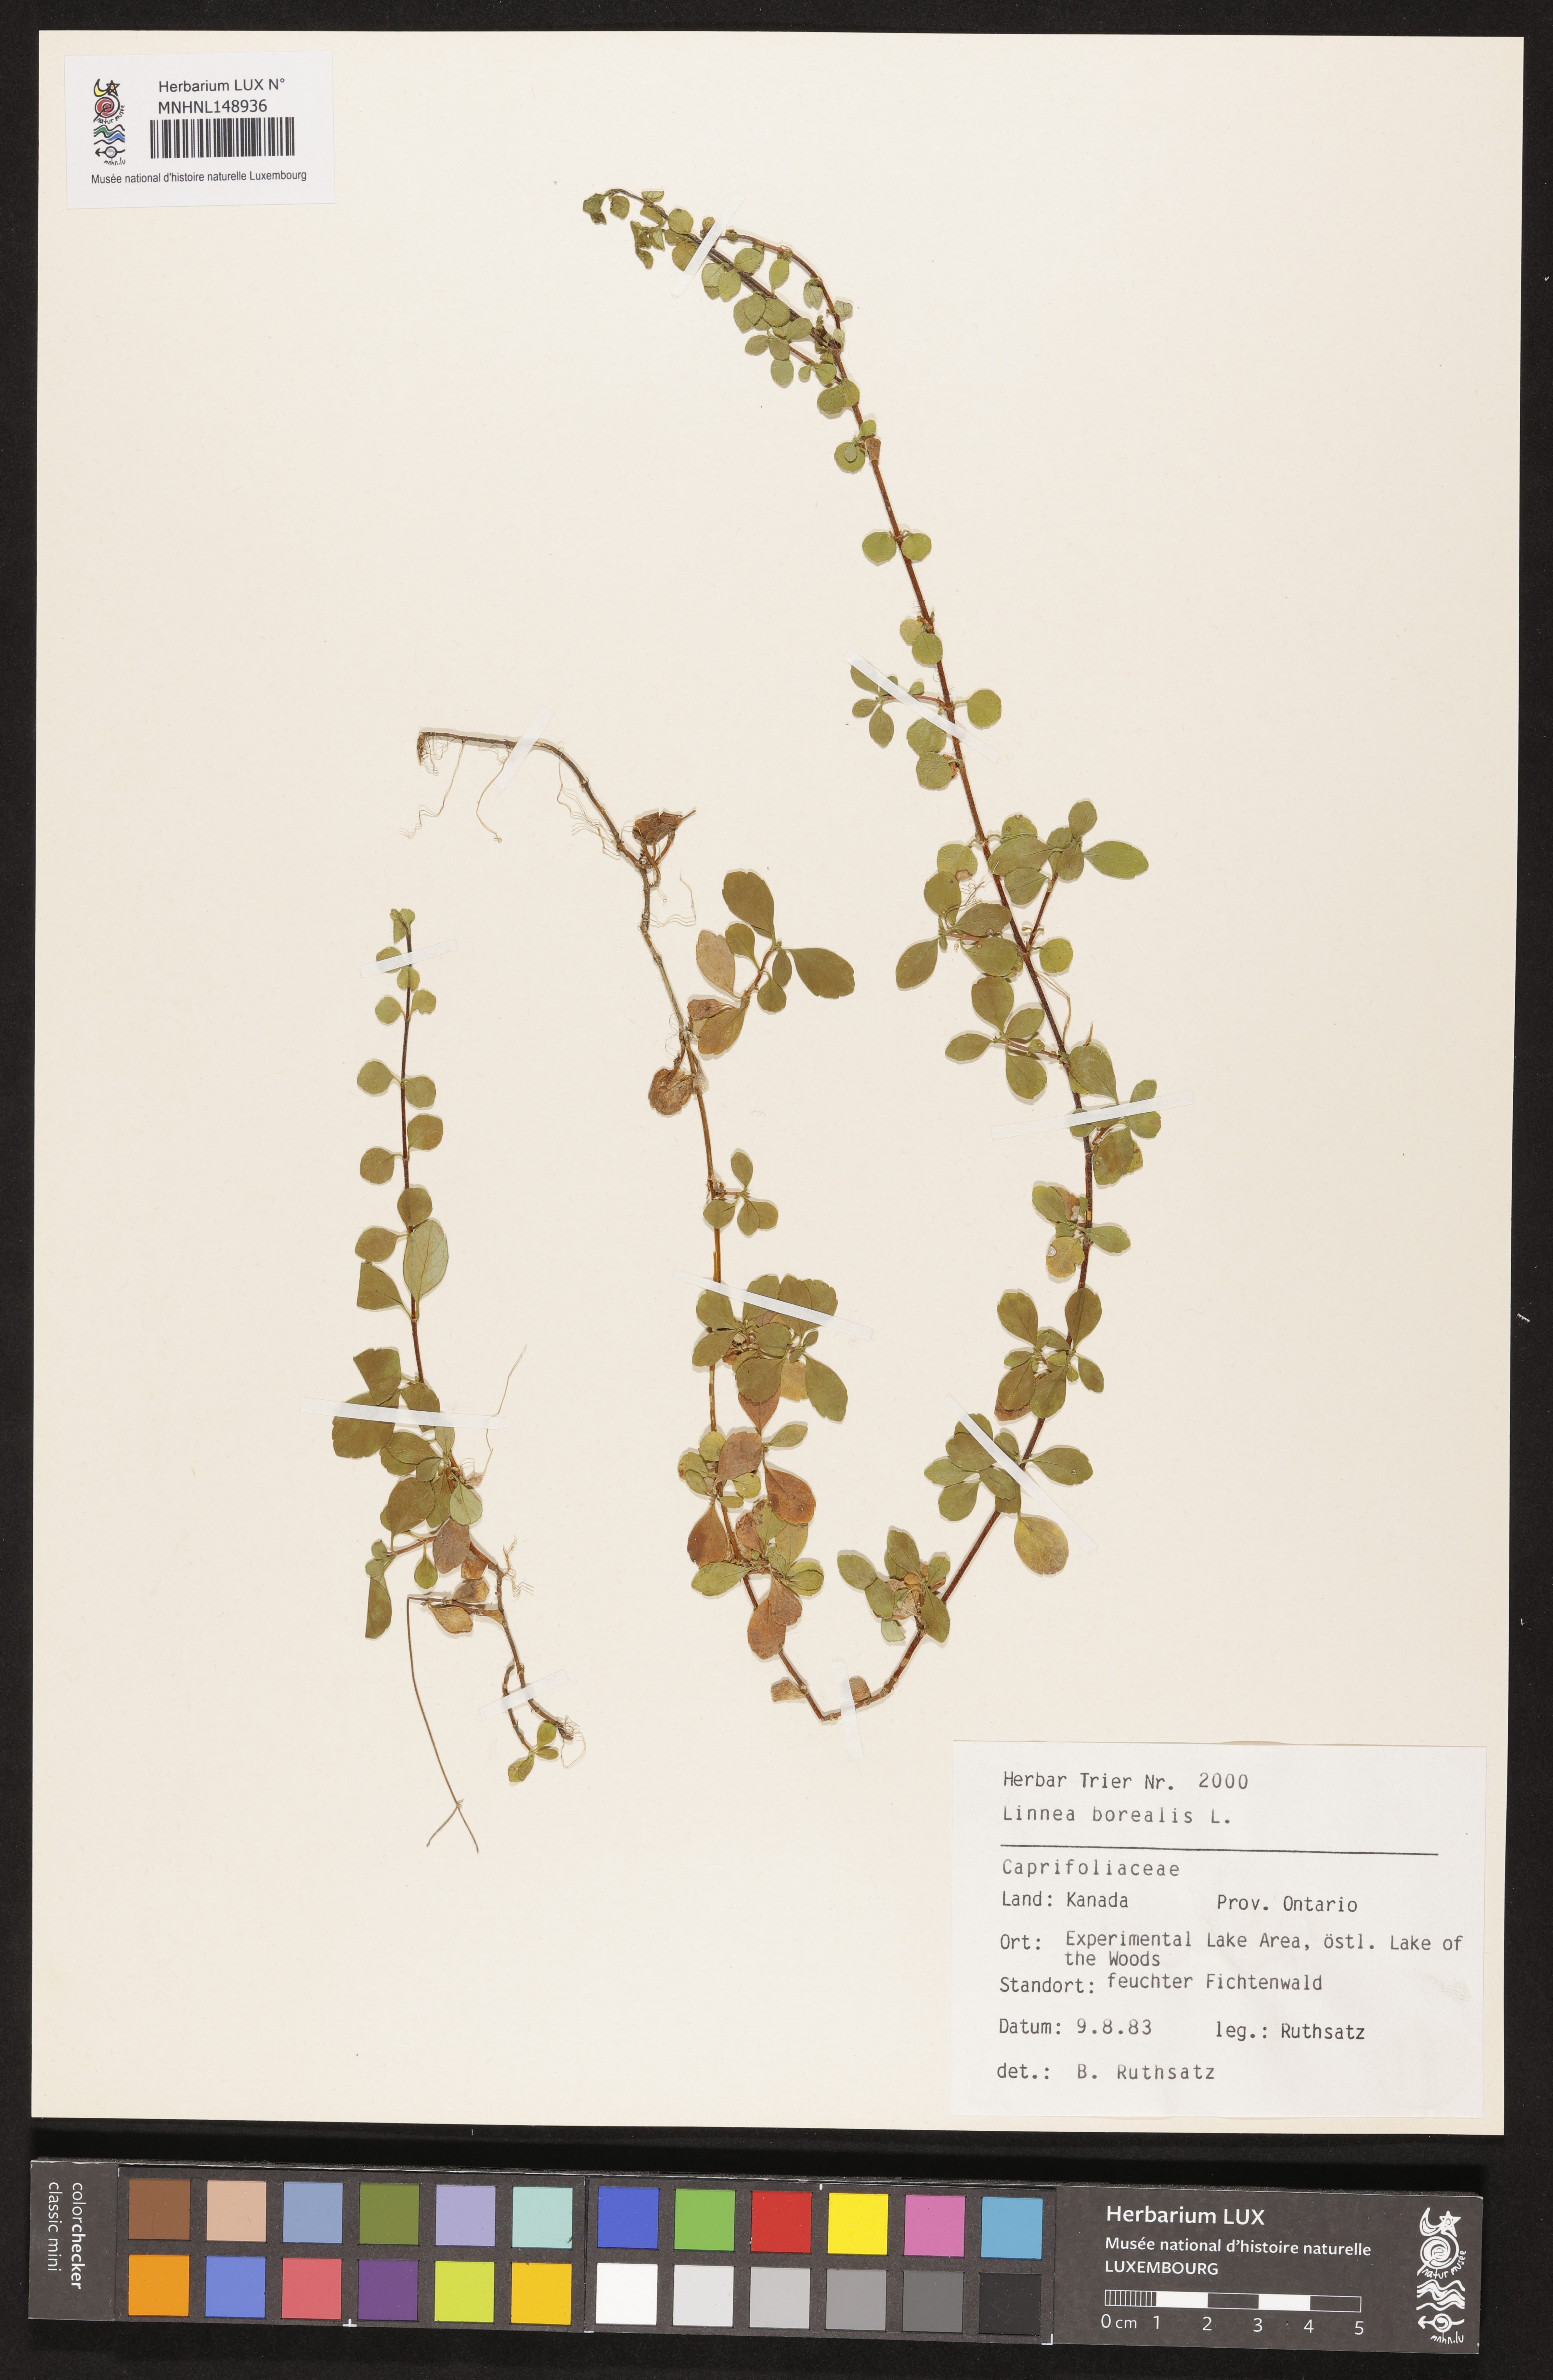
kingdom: Plantae
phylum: Tracheophyta
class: Magnoliopsida
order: Dipsacales
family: Caprifoliaceae
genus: Linnaea
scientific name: Linnaea borealis
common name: Twinflower
